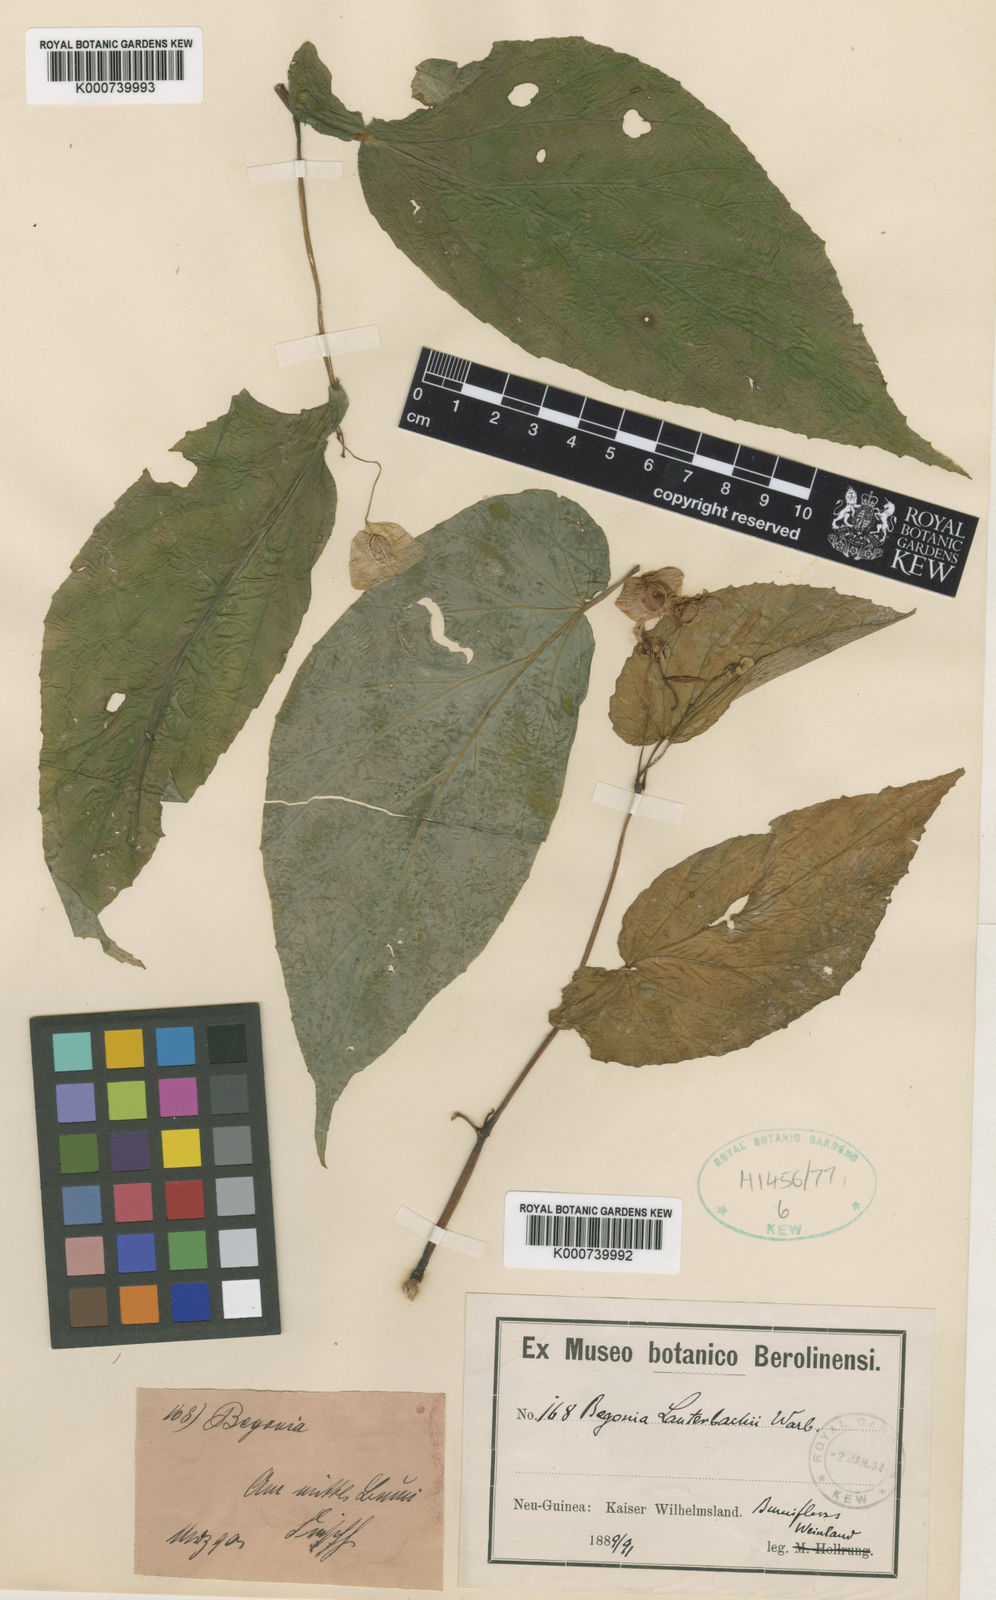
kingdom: Plantae
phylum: Tracheophyta
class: Magnoliopsida
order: Cucurbitales
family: Begoniaceae
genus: Begonia
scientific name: Begonia lauterbachii
